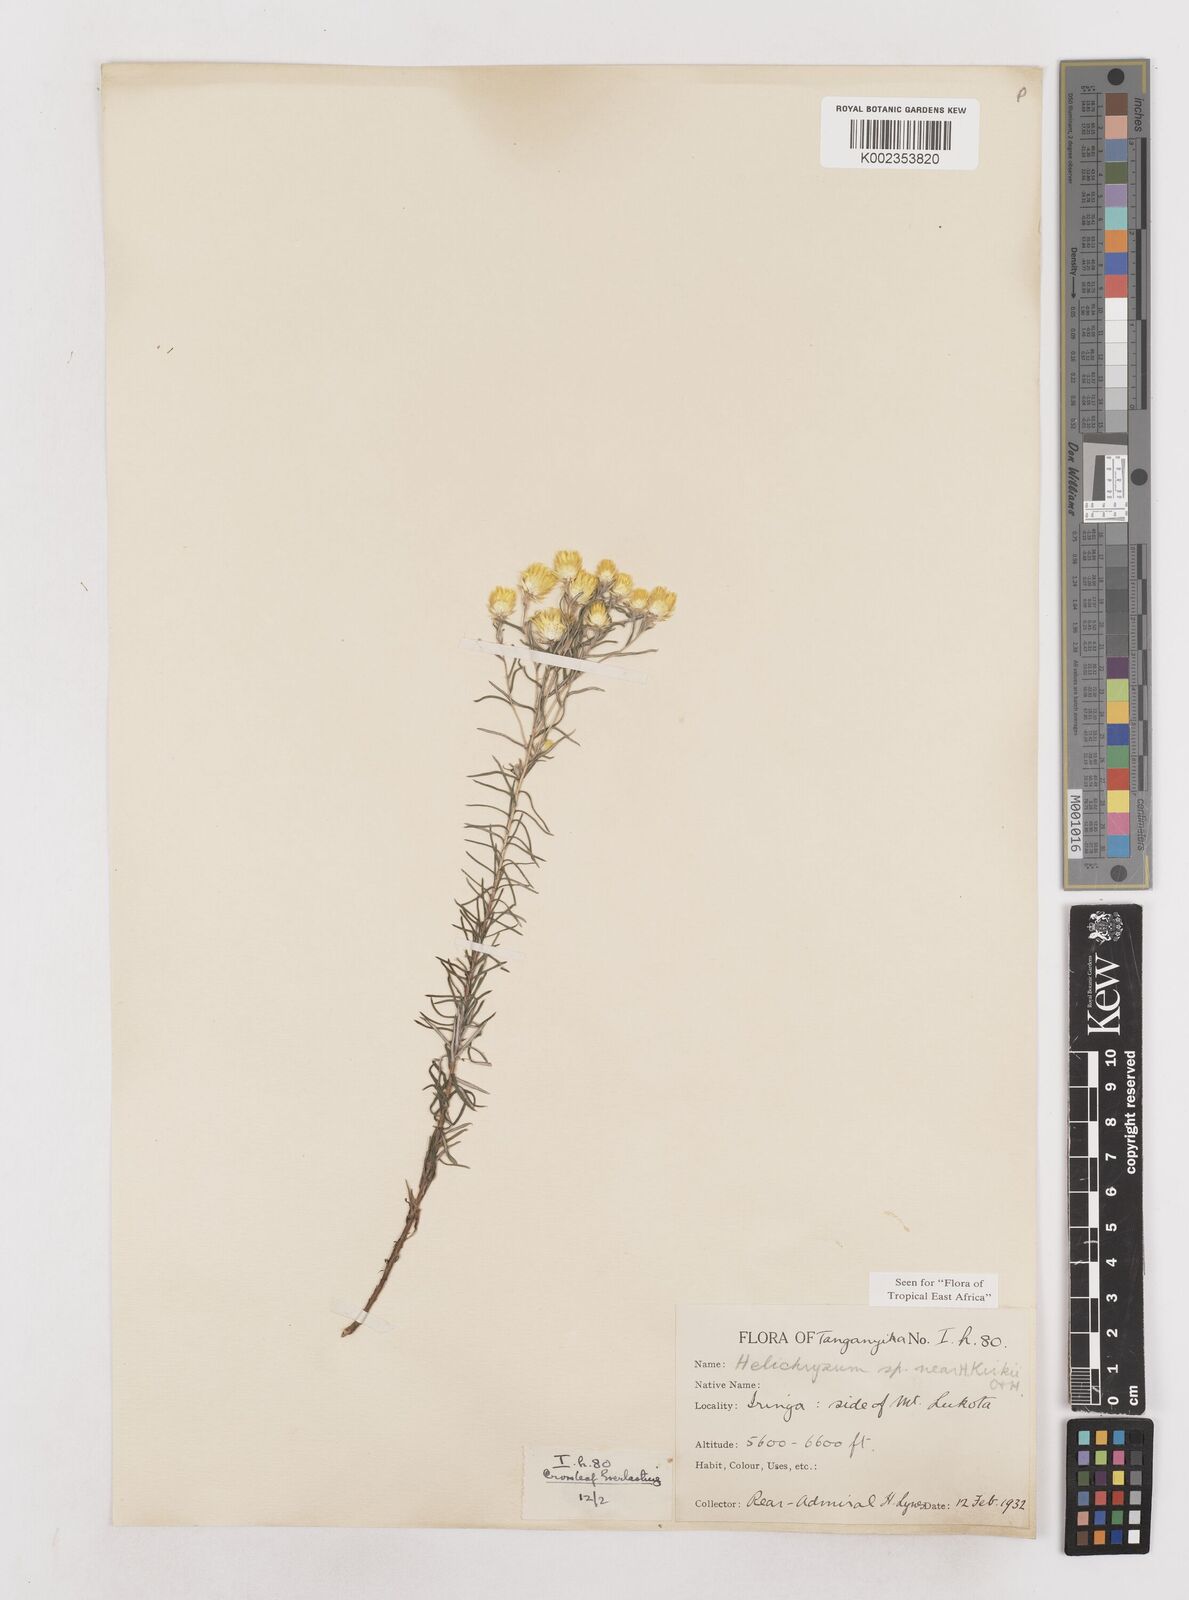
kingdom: Plantae
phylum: Tracheophyta
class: Magnoliopsida
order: Asterales
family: Asteraceae
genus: Helichrysum
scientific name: Helichrysum kirkii
